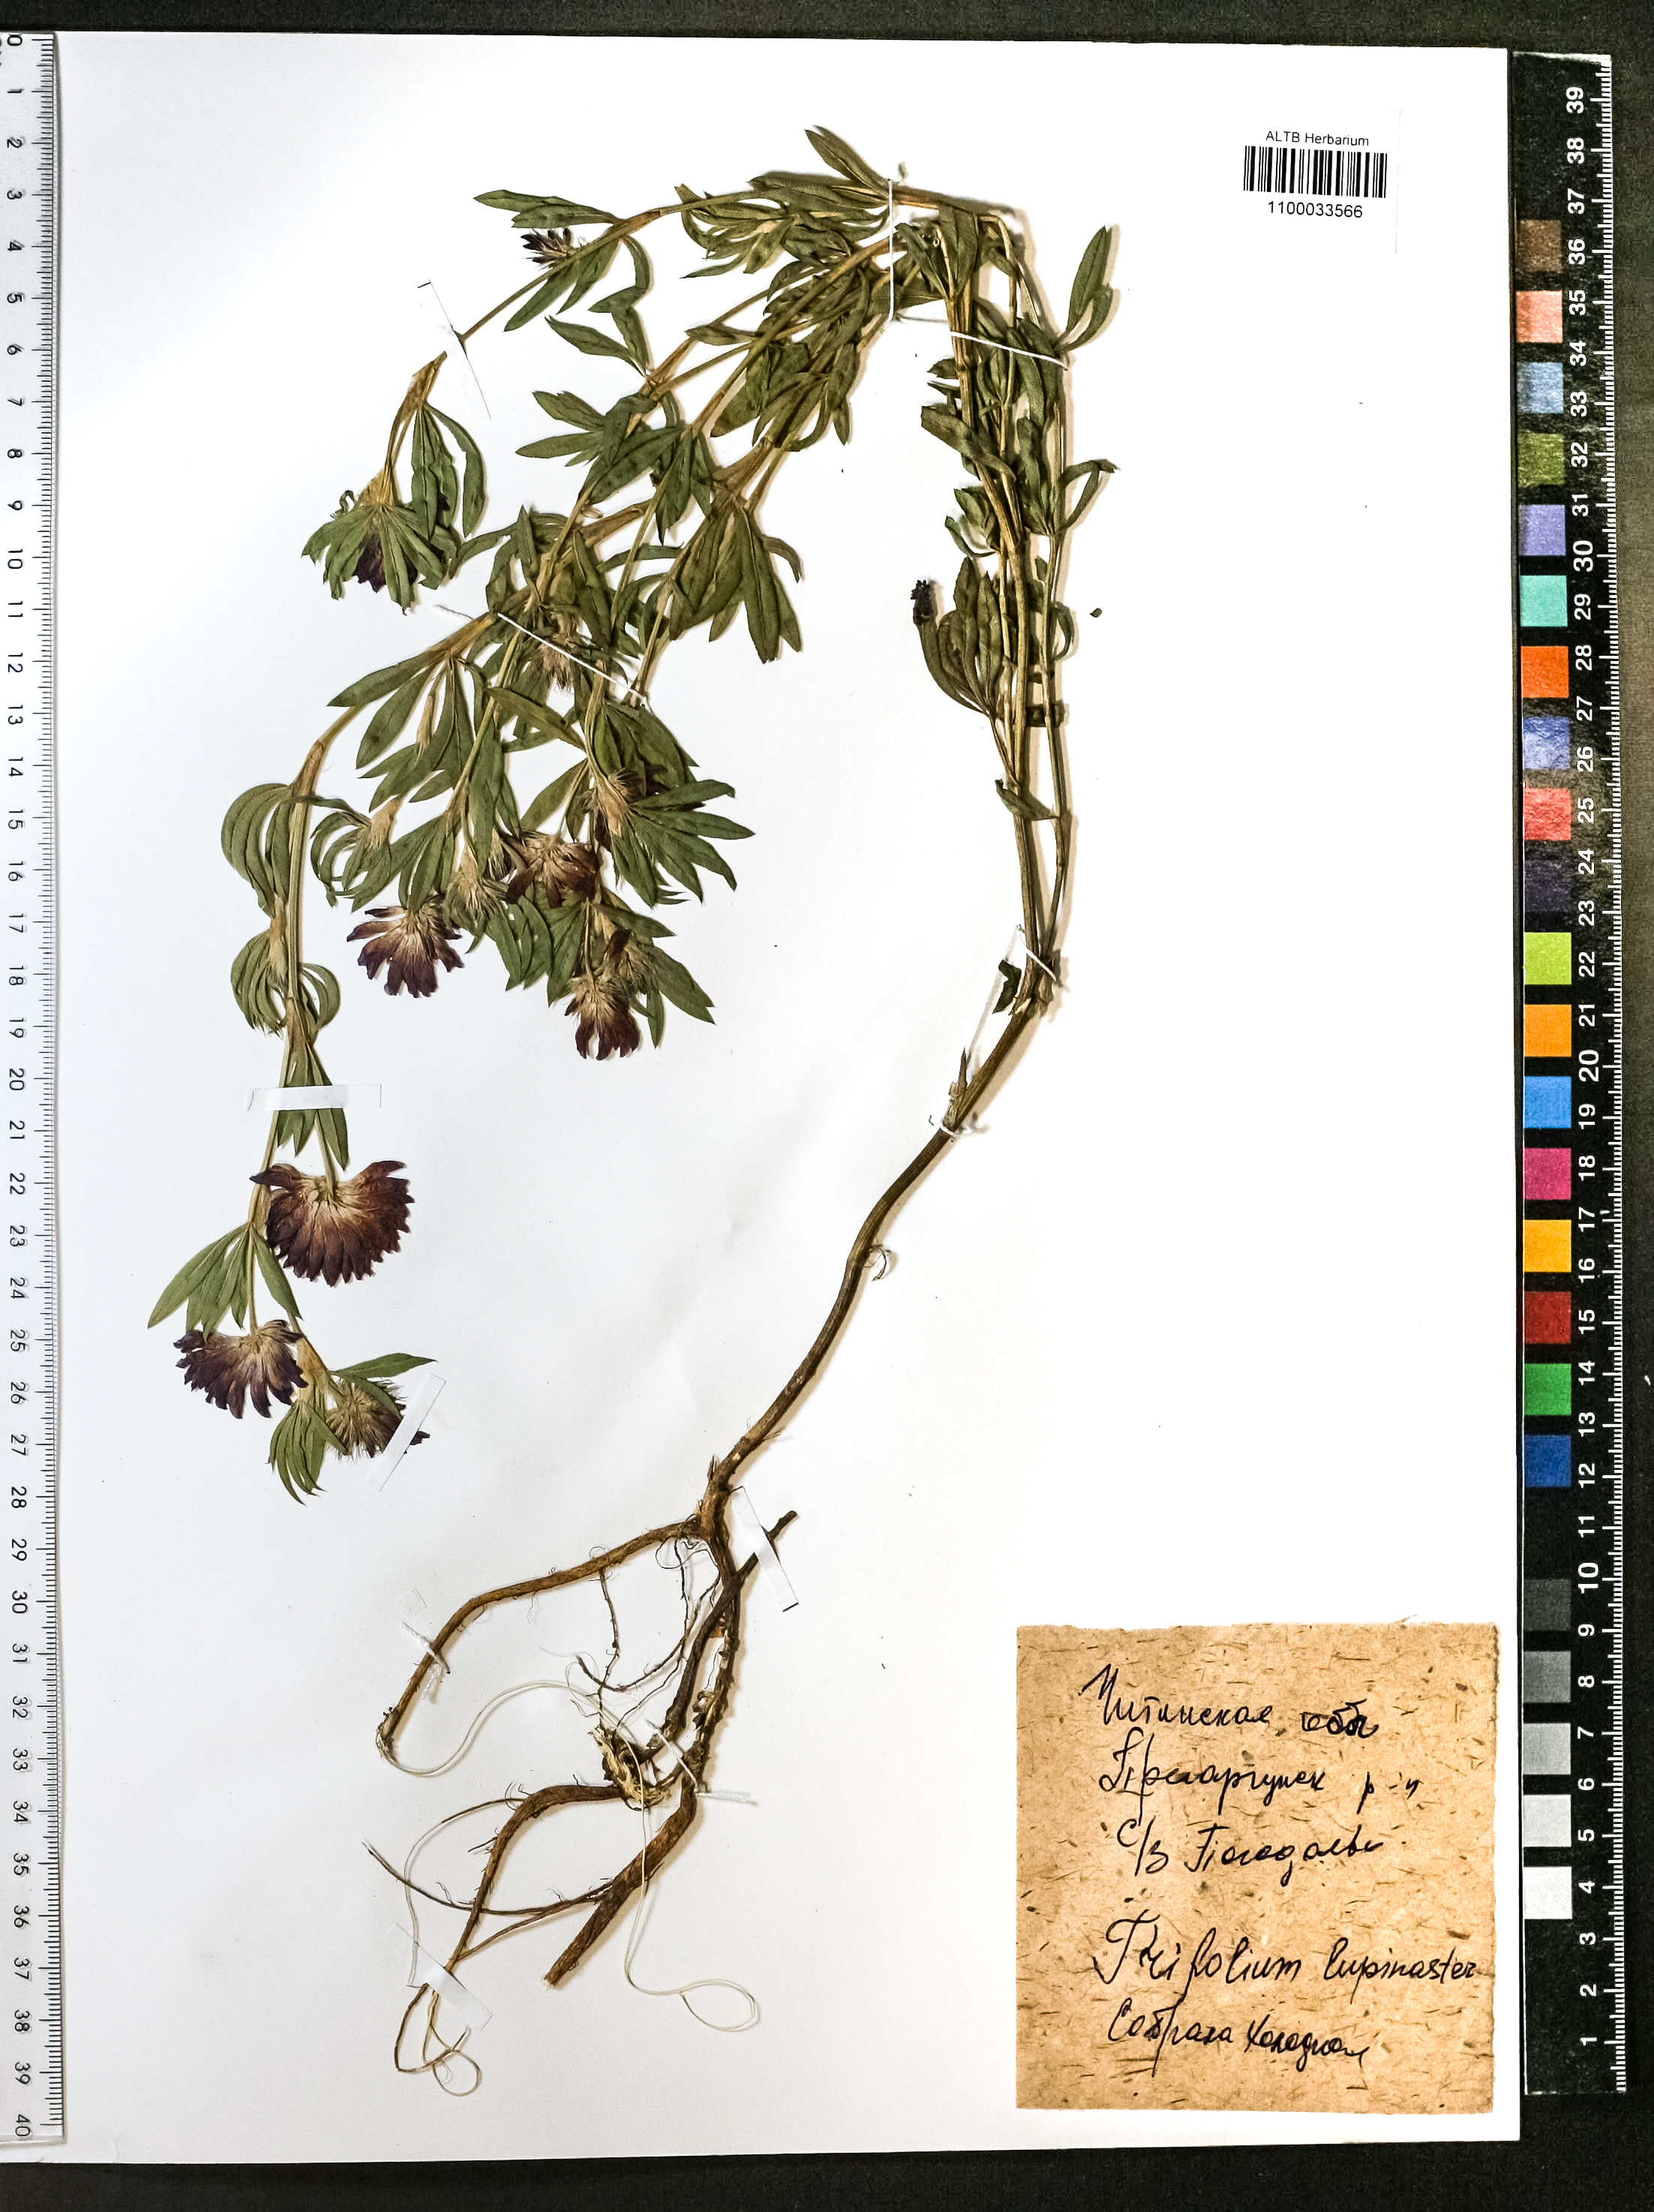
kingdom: Plantae
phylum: Tracheophyta
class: Magnoliopsida
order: Fabales
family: Fabaceae
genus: Trifolium
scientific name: Trifolium lupinaster
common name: Lupine clover
